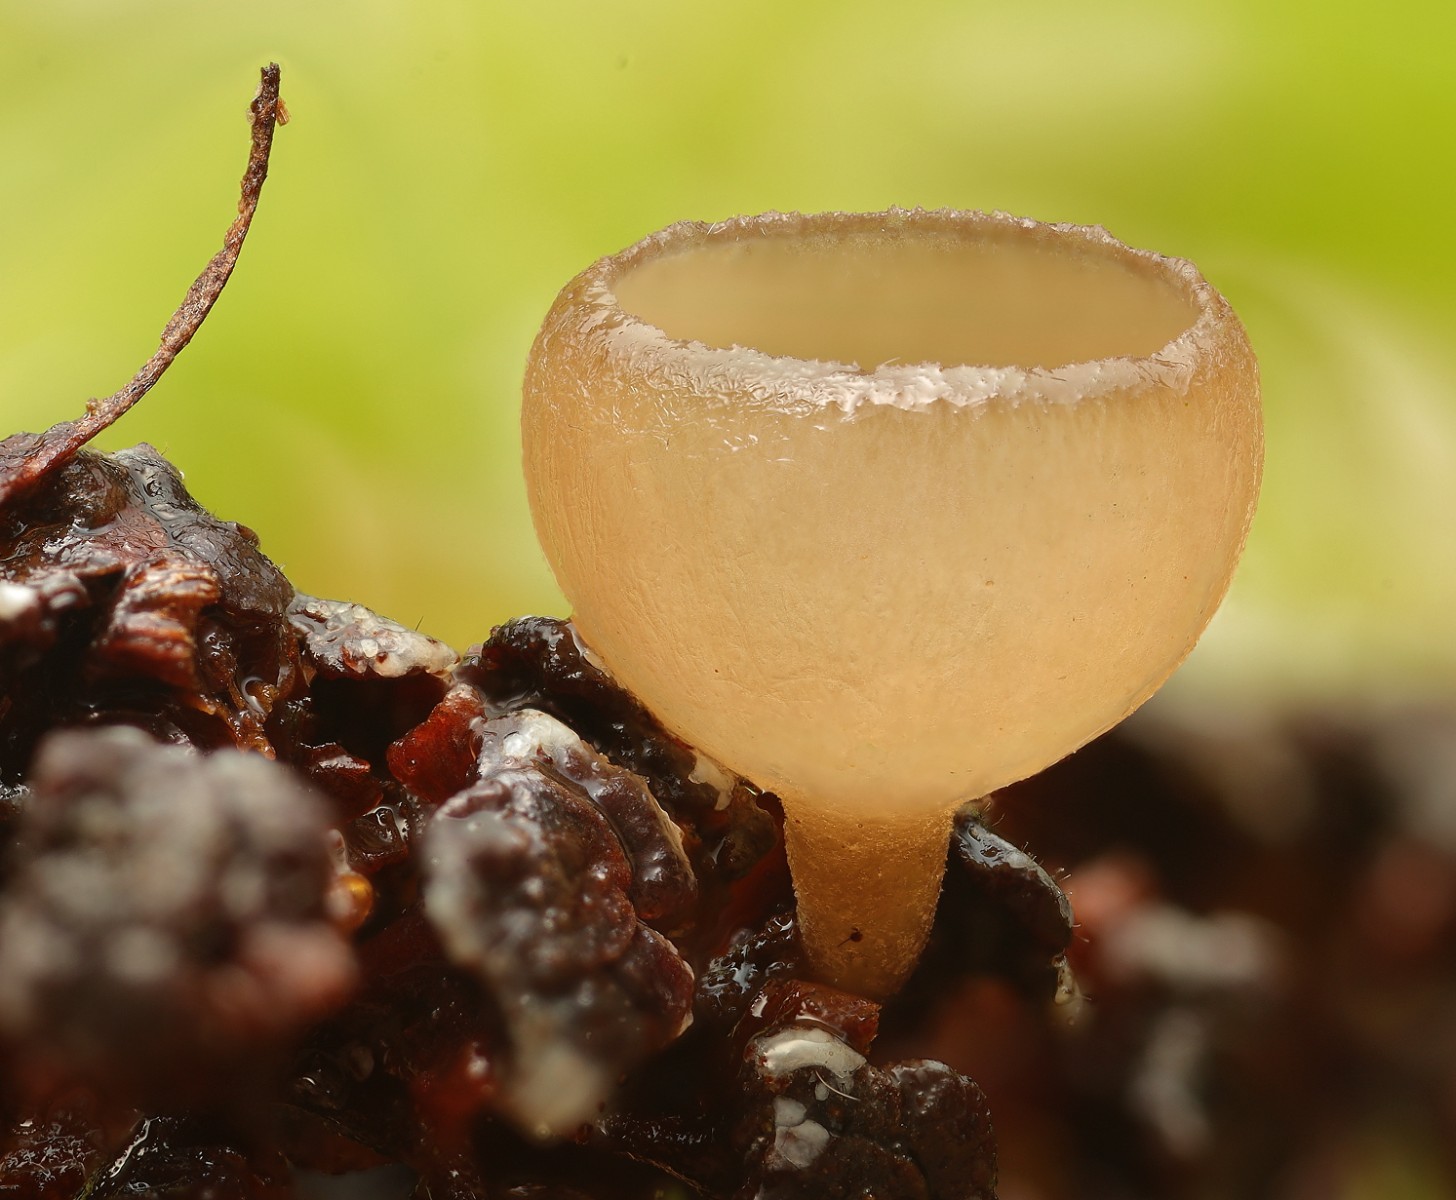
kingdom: Fungi
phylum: Ascomycota
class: Leotiomycetes
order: Helotiales
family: Sclerotiniaceae
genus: Ciboria
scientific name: Ciboria amentacea
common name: ellerakle-knoldskive
